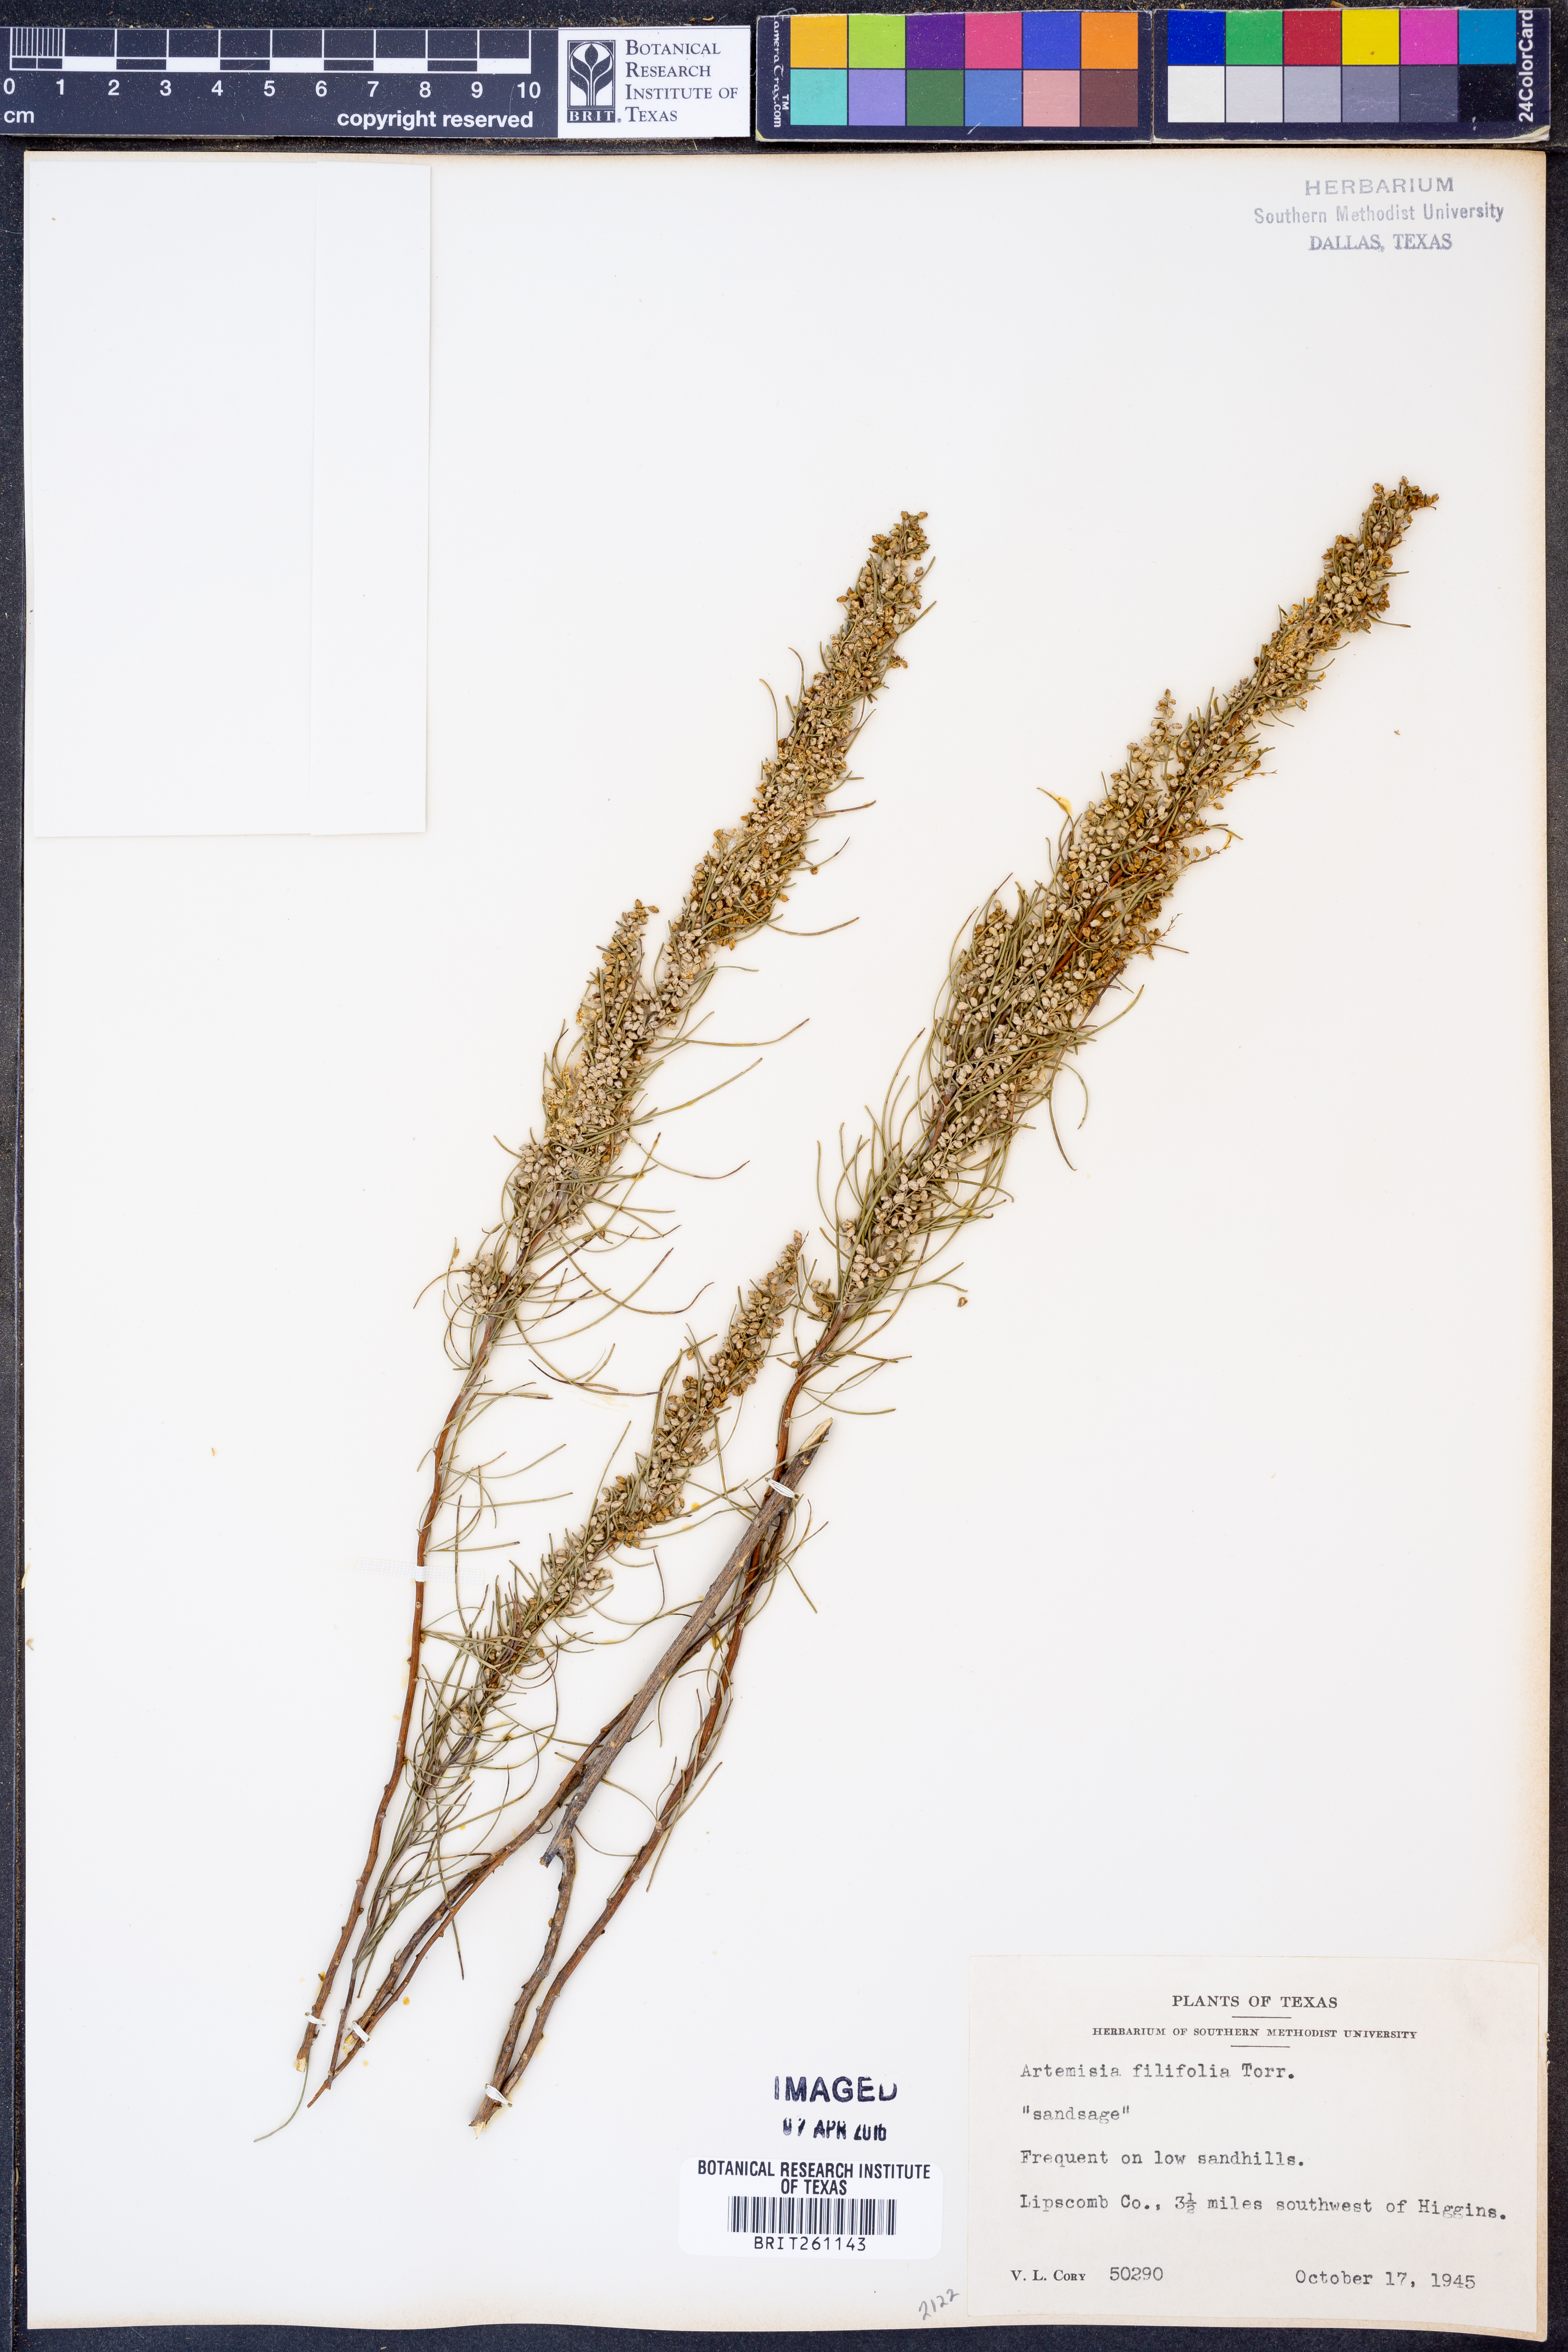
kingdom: Plantae
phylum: Tracheophyta
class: Magnoliopsida
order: Asterales
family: Asteraceae
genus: Artemisia
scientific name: Artemisia filifolia
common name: Sand-sage
